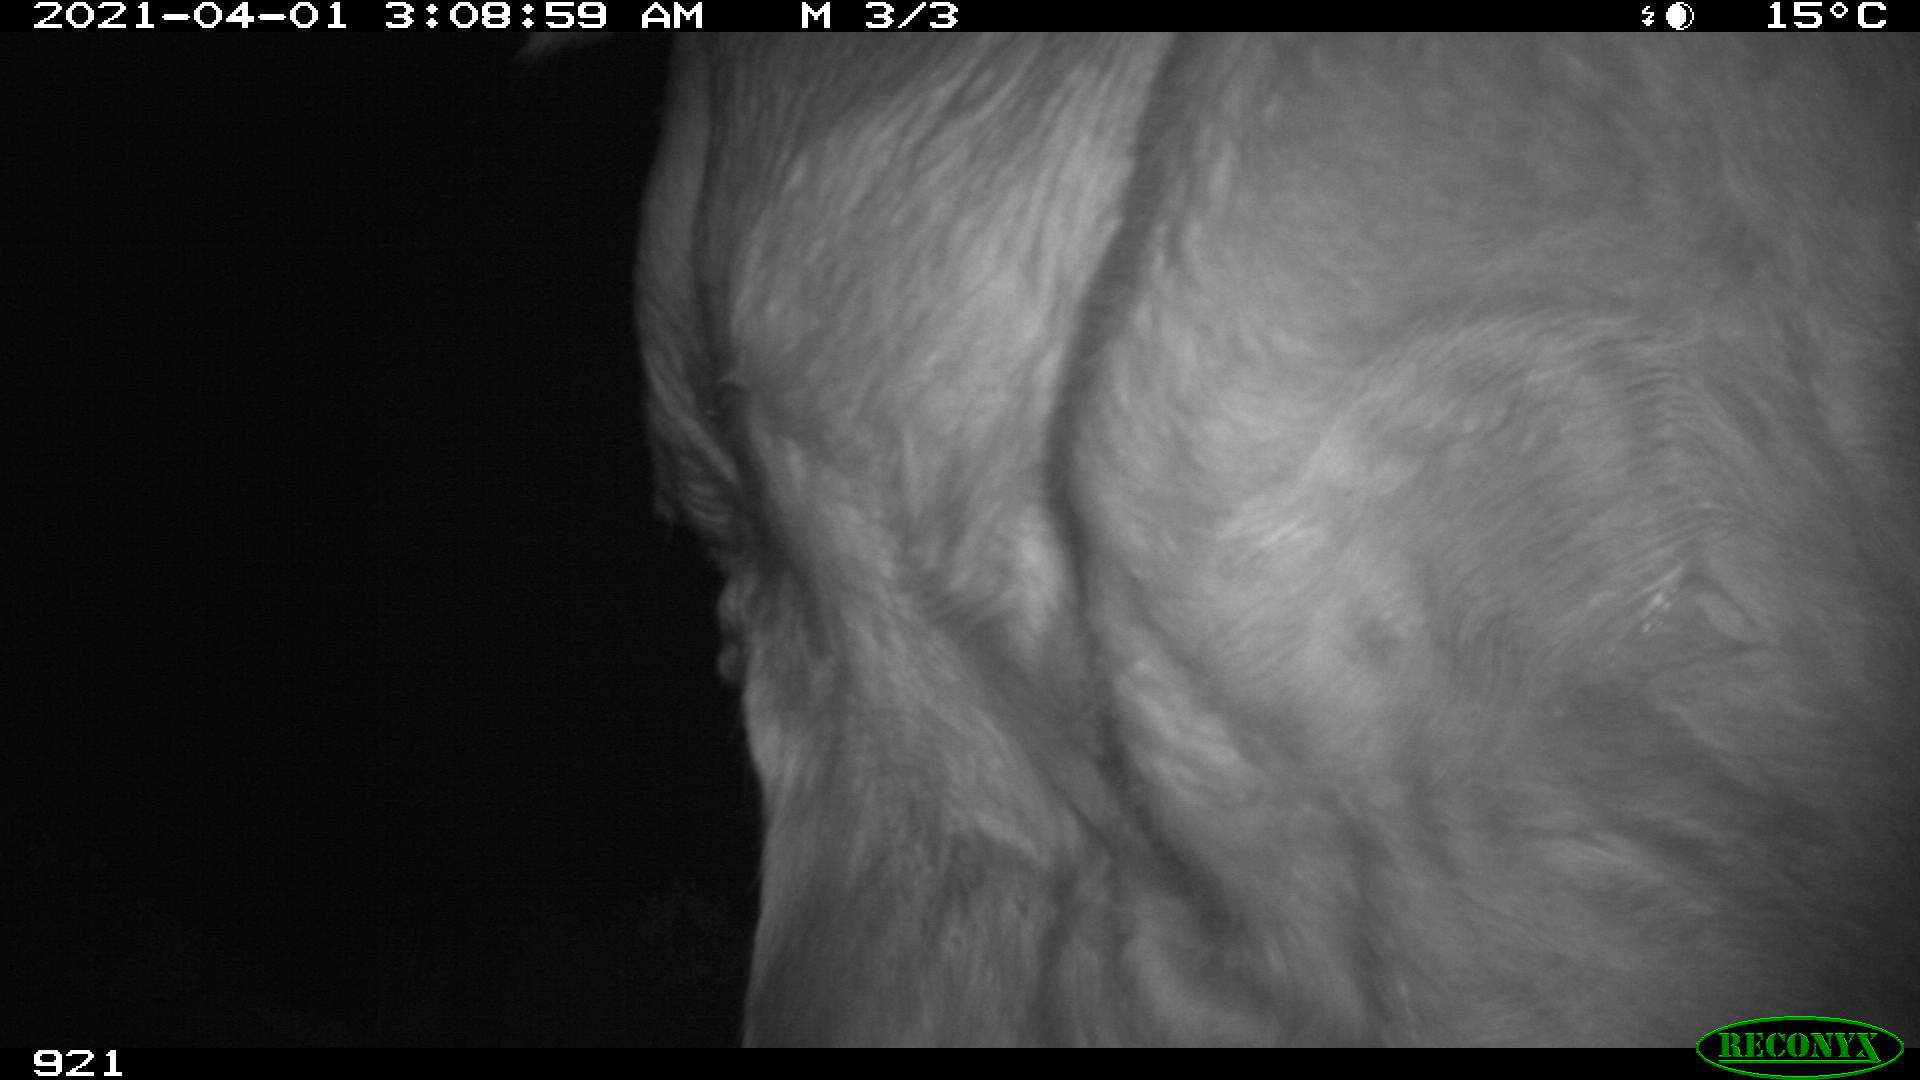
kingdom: Animalia
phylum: Chordata
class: Mammalia
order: Artiodactyla
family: Bovidae
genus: Bos
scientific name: Bos taurus
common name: Domesticated cattle
